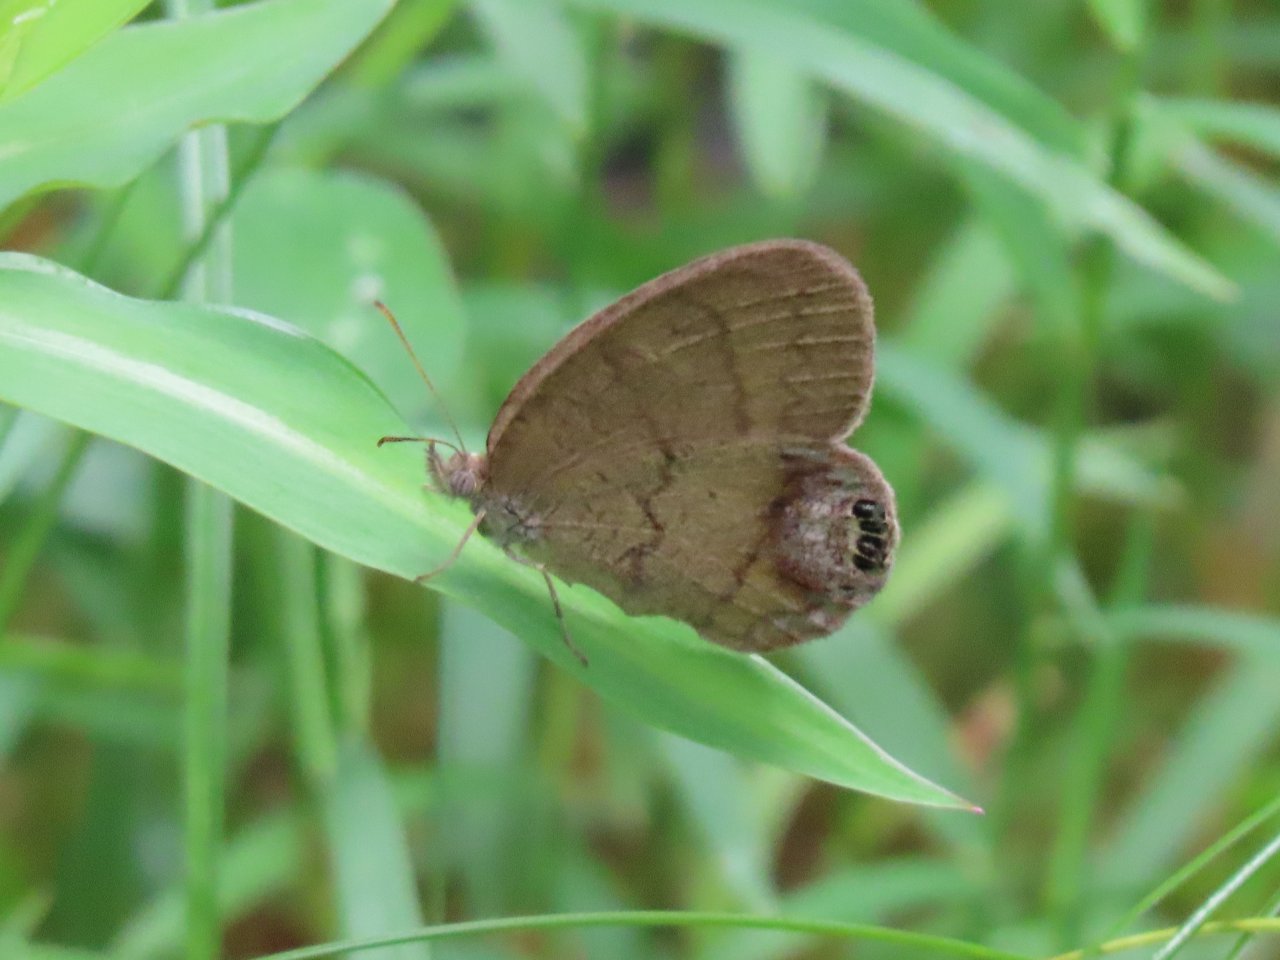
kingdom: Animalia
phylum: Arthropoda
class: Insecta
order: Lepidoptera
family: Nymphalidae
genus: Euptychia
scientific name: Euptychia cornelius
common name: Gemmed Satyr
